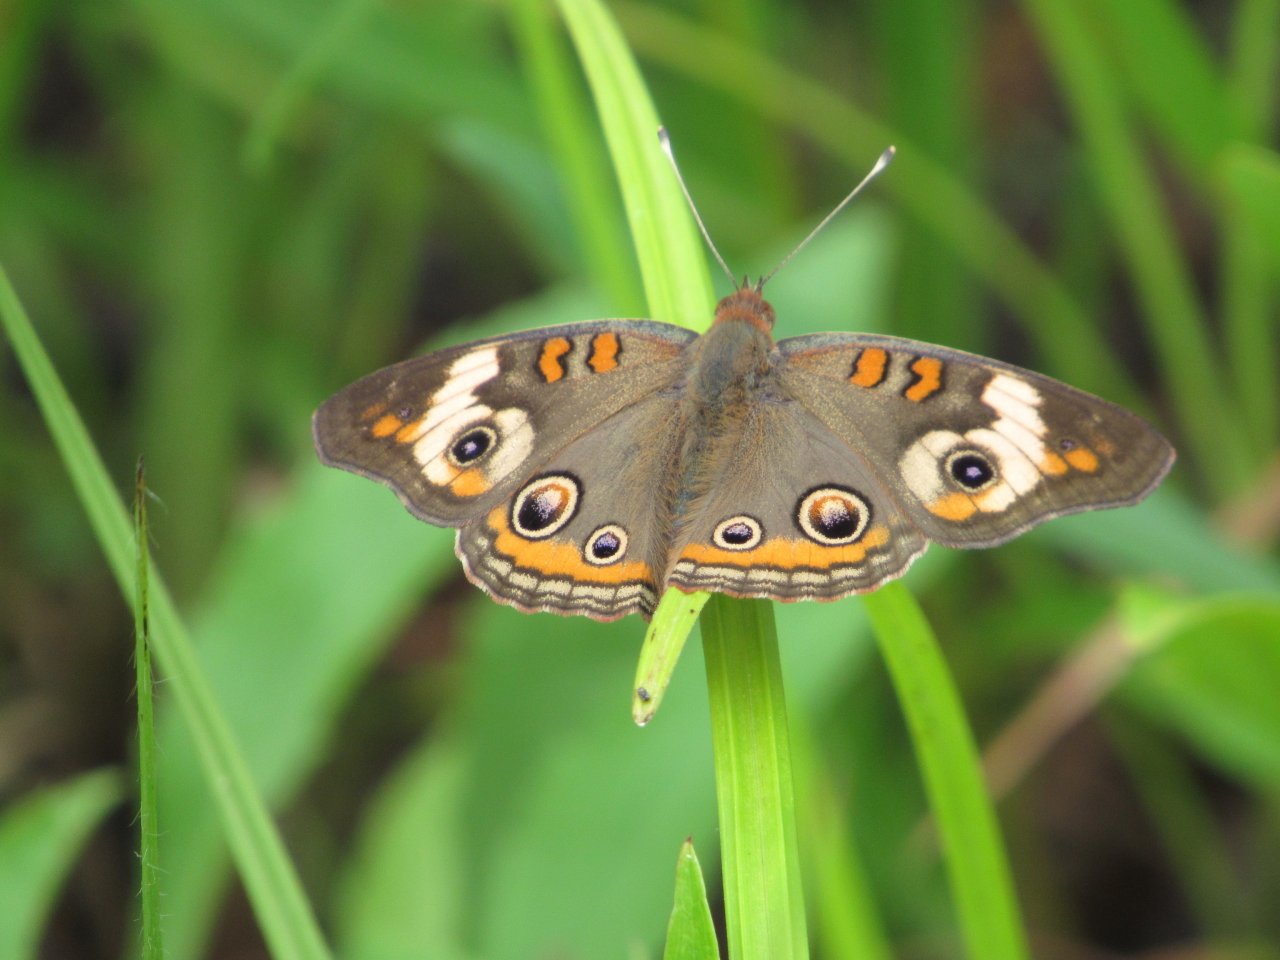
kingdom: Animalia
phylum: Arthropoda
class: Insecta
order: Lepidoptera
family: Nymphalidae
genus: Junonia
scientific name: Junonia coenia
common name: Common Buckeye
